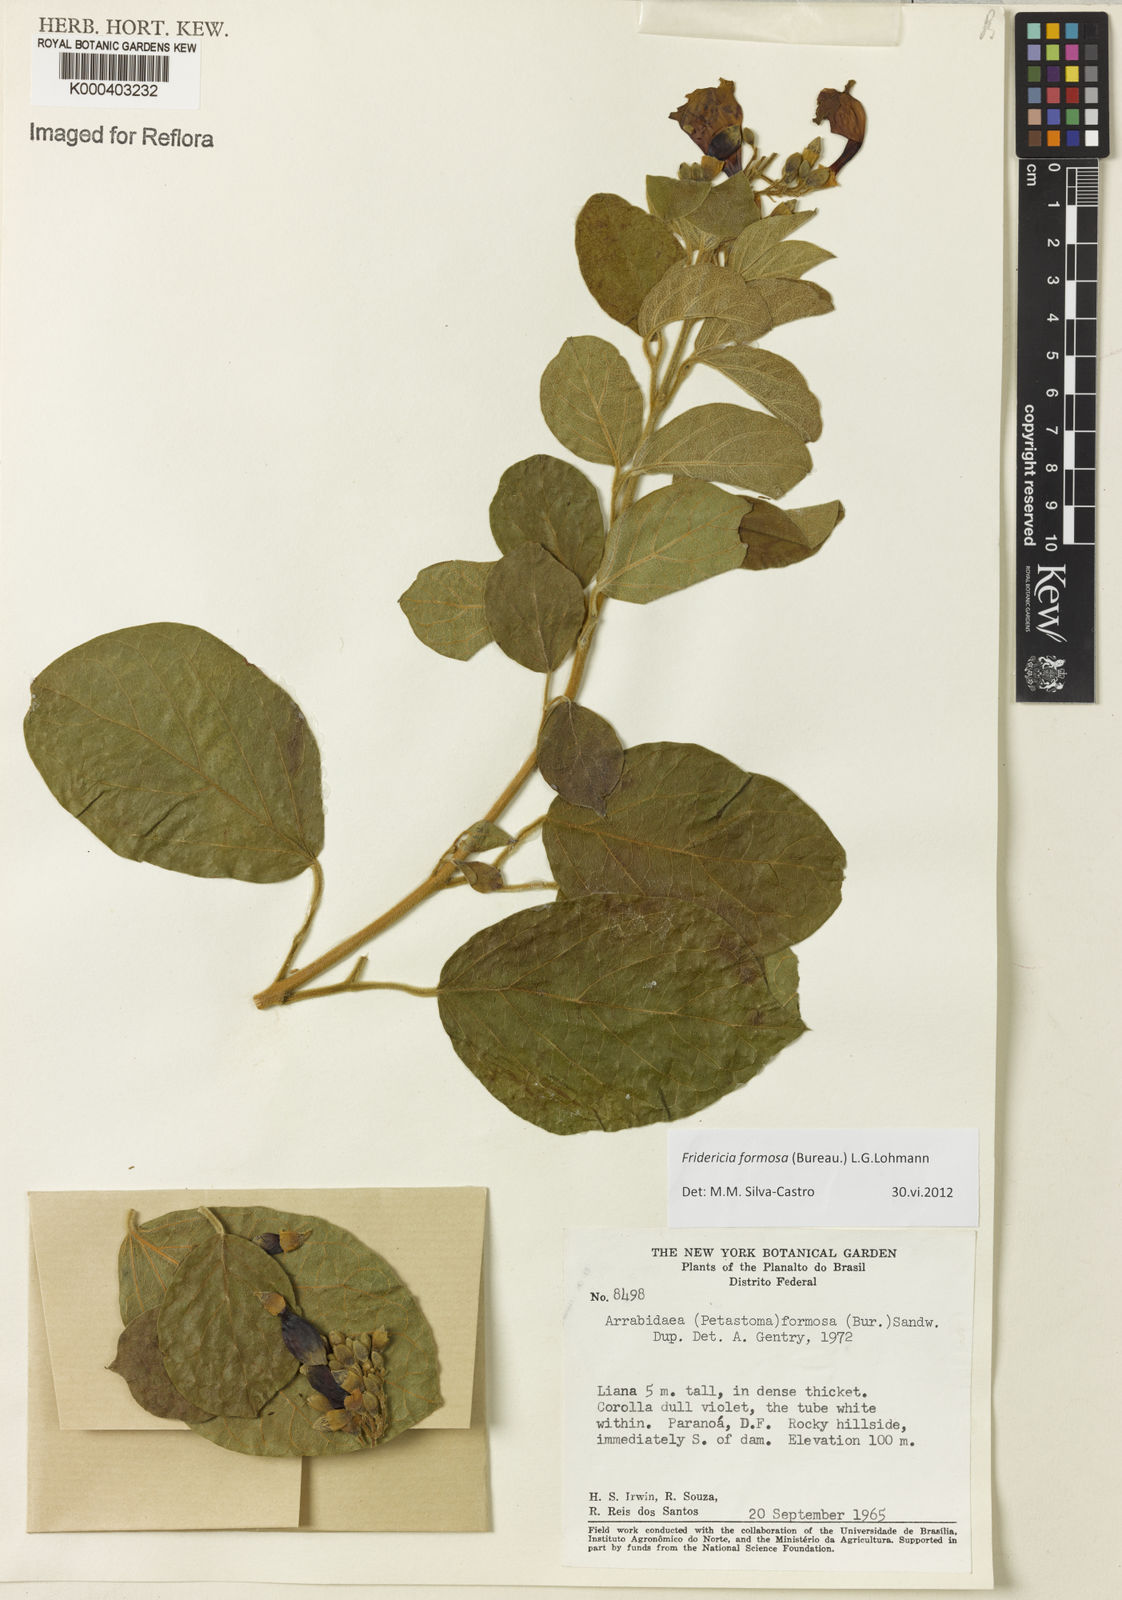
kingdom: Plantae
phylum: Tracheophyta
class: Magnoliopsida
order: Lamiales
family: Bignoniaceae
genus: Fridericia
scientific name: Fridericia formosa
